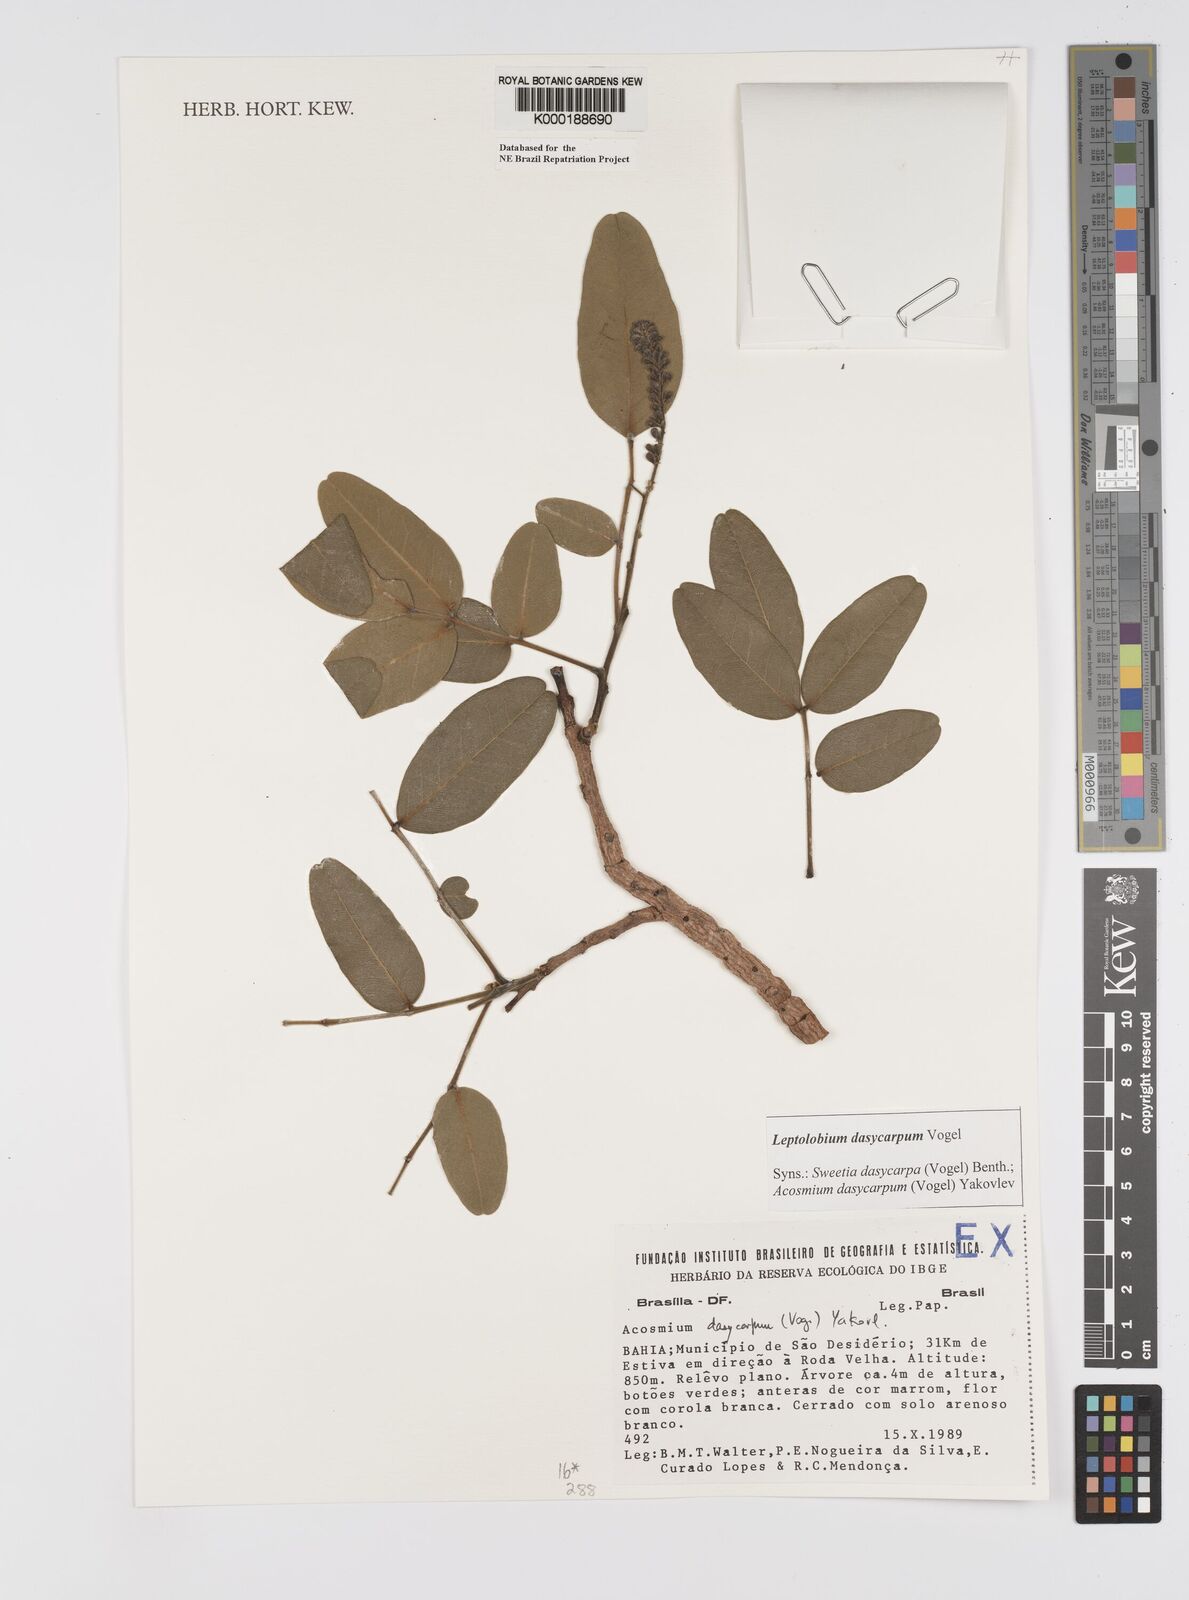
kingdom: Plantae
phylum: Tracheophyta
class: Magnoliopsida
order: Fabales
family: Fabaceae
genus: Leptolobium
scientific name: Leptolobium dasycarpum
